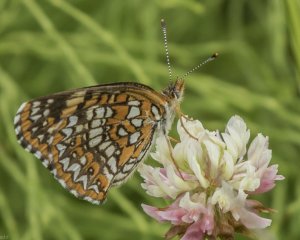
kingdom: Animalia
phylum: Arthropoda
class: Insecta
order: Lepidoptera
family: Nymphalidae
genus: Chlosyne
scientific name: Chlosyne harrisii
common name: Harris's Checkerspot
